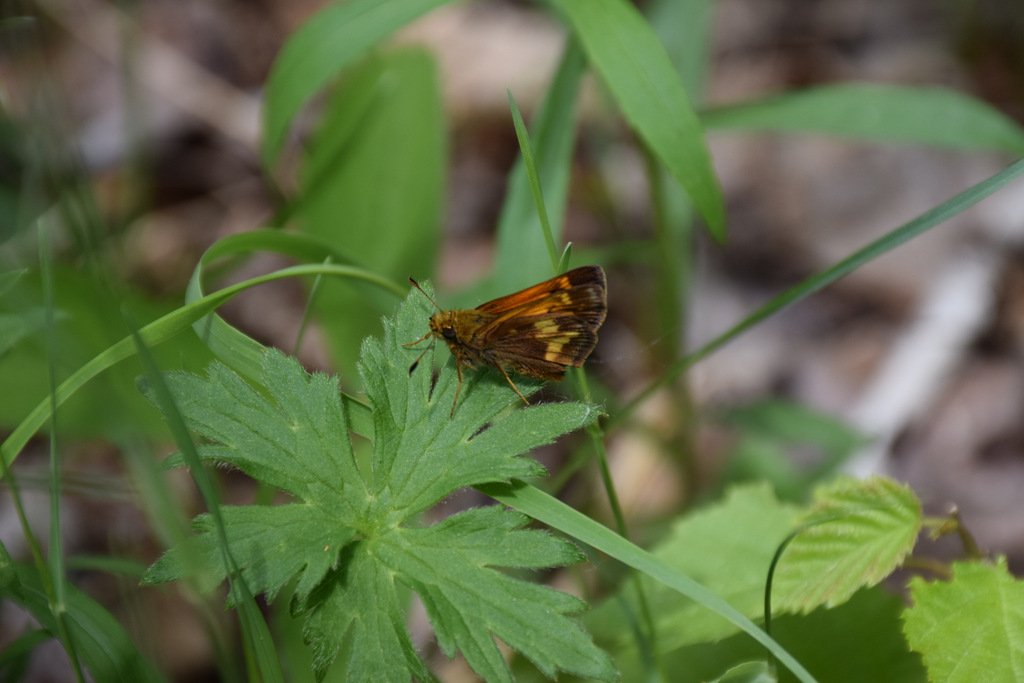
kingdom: Animalia
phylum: Arthropoda
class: Insecta
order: Lepidoptera
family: Hesperiidae
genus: Lon
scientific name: Lon hobomok
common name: Hobomok Skipper
